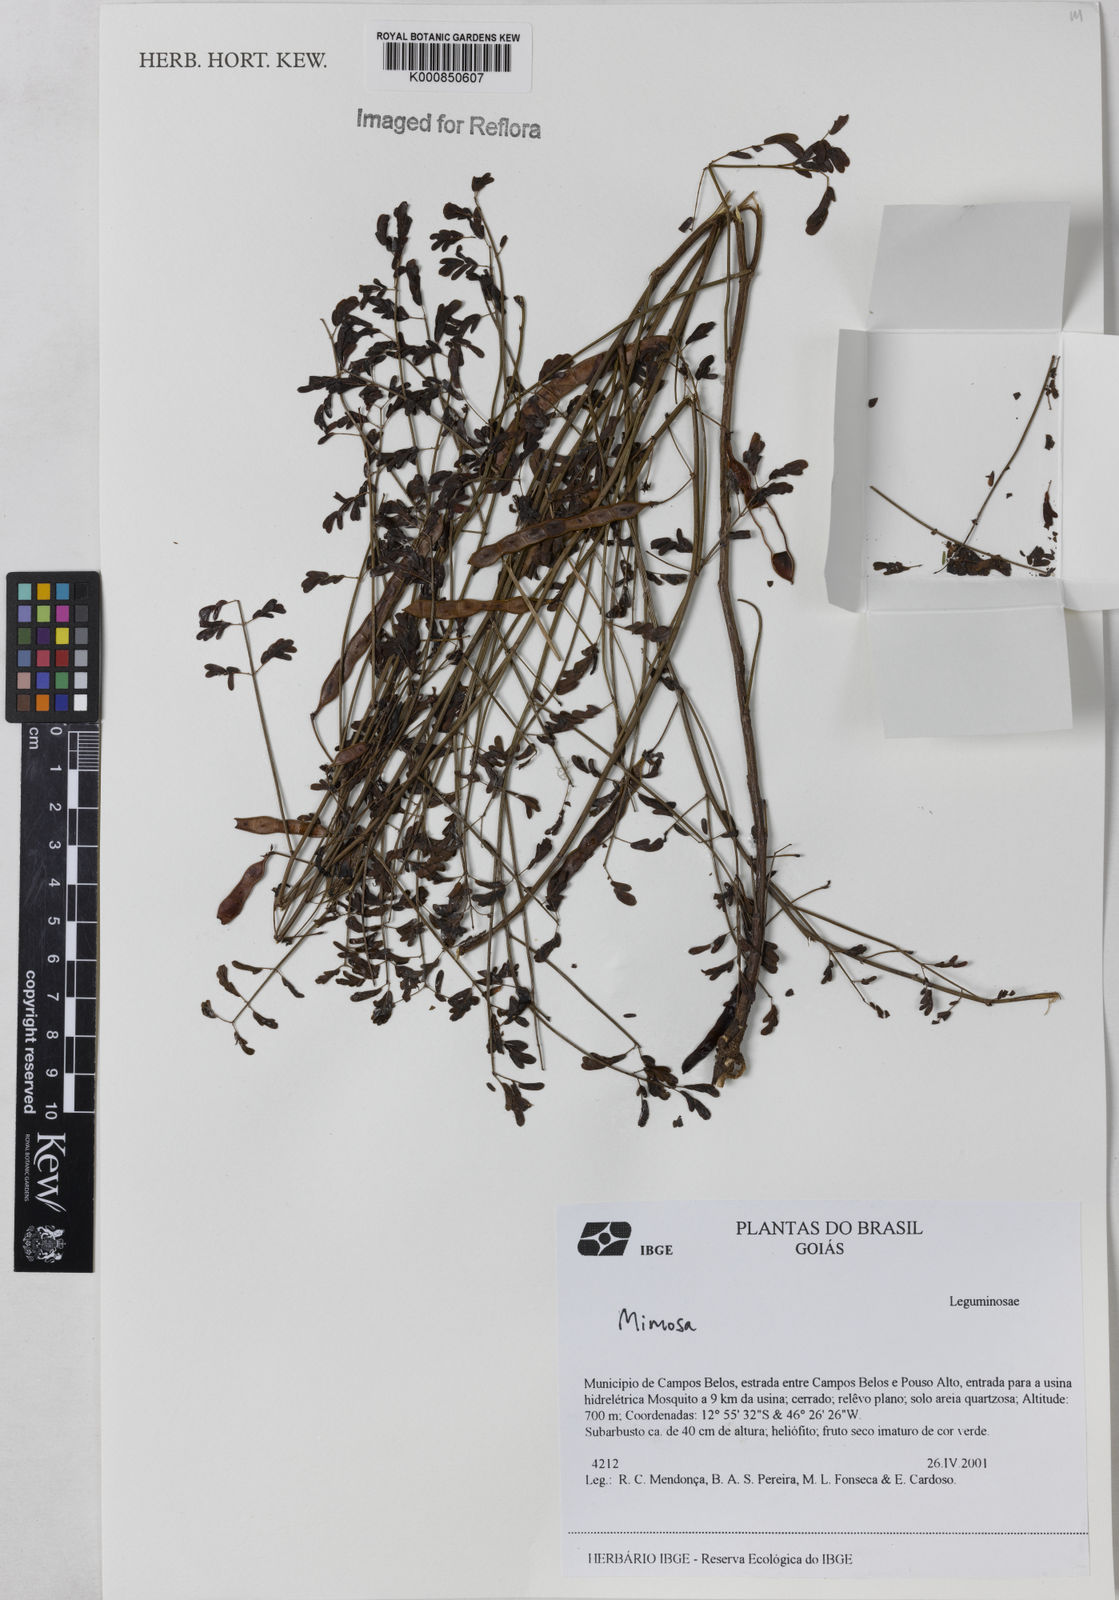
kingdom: Plantae
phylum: Tracheophyta
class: Magnoliopsida
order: Fabales
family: Fabaceae
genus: Mimosa
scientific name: Mimosa piptoptera
